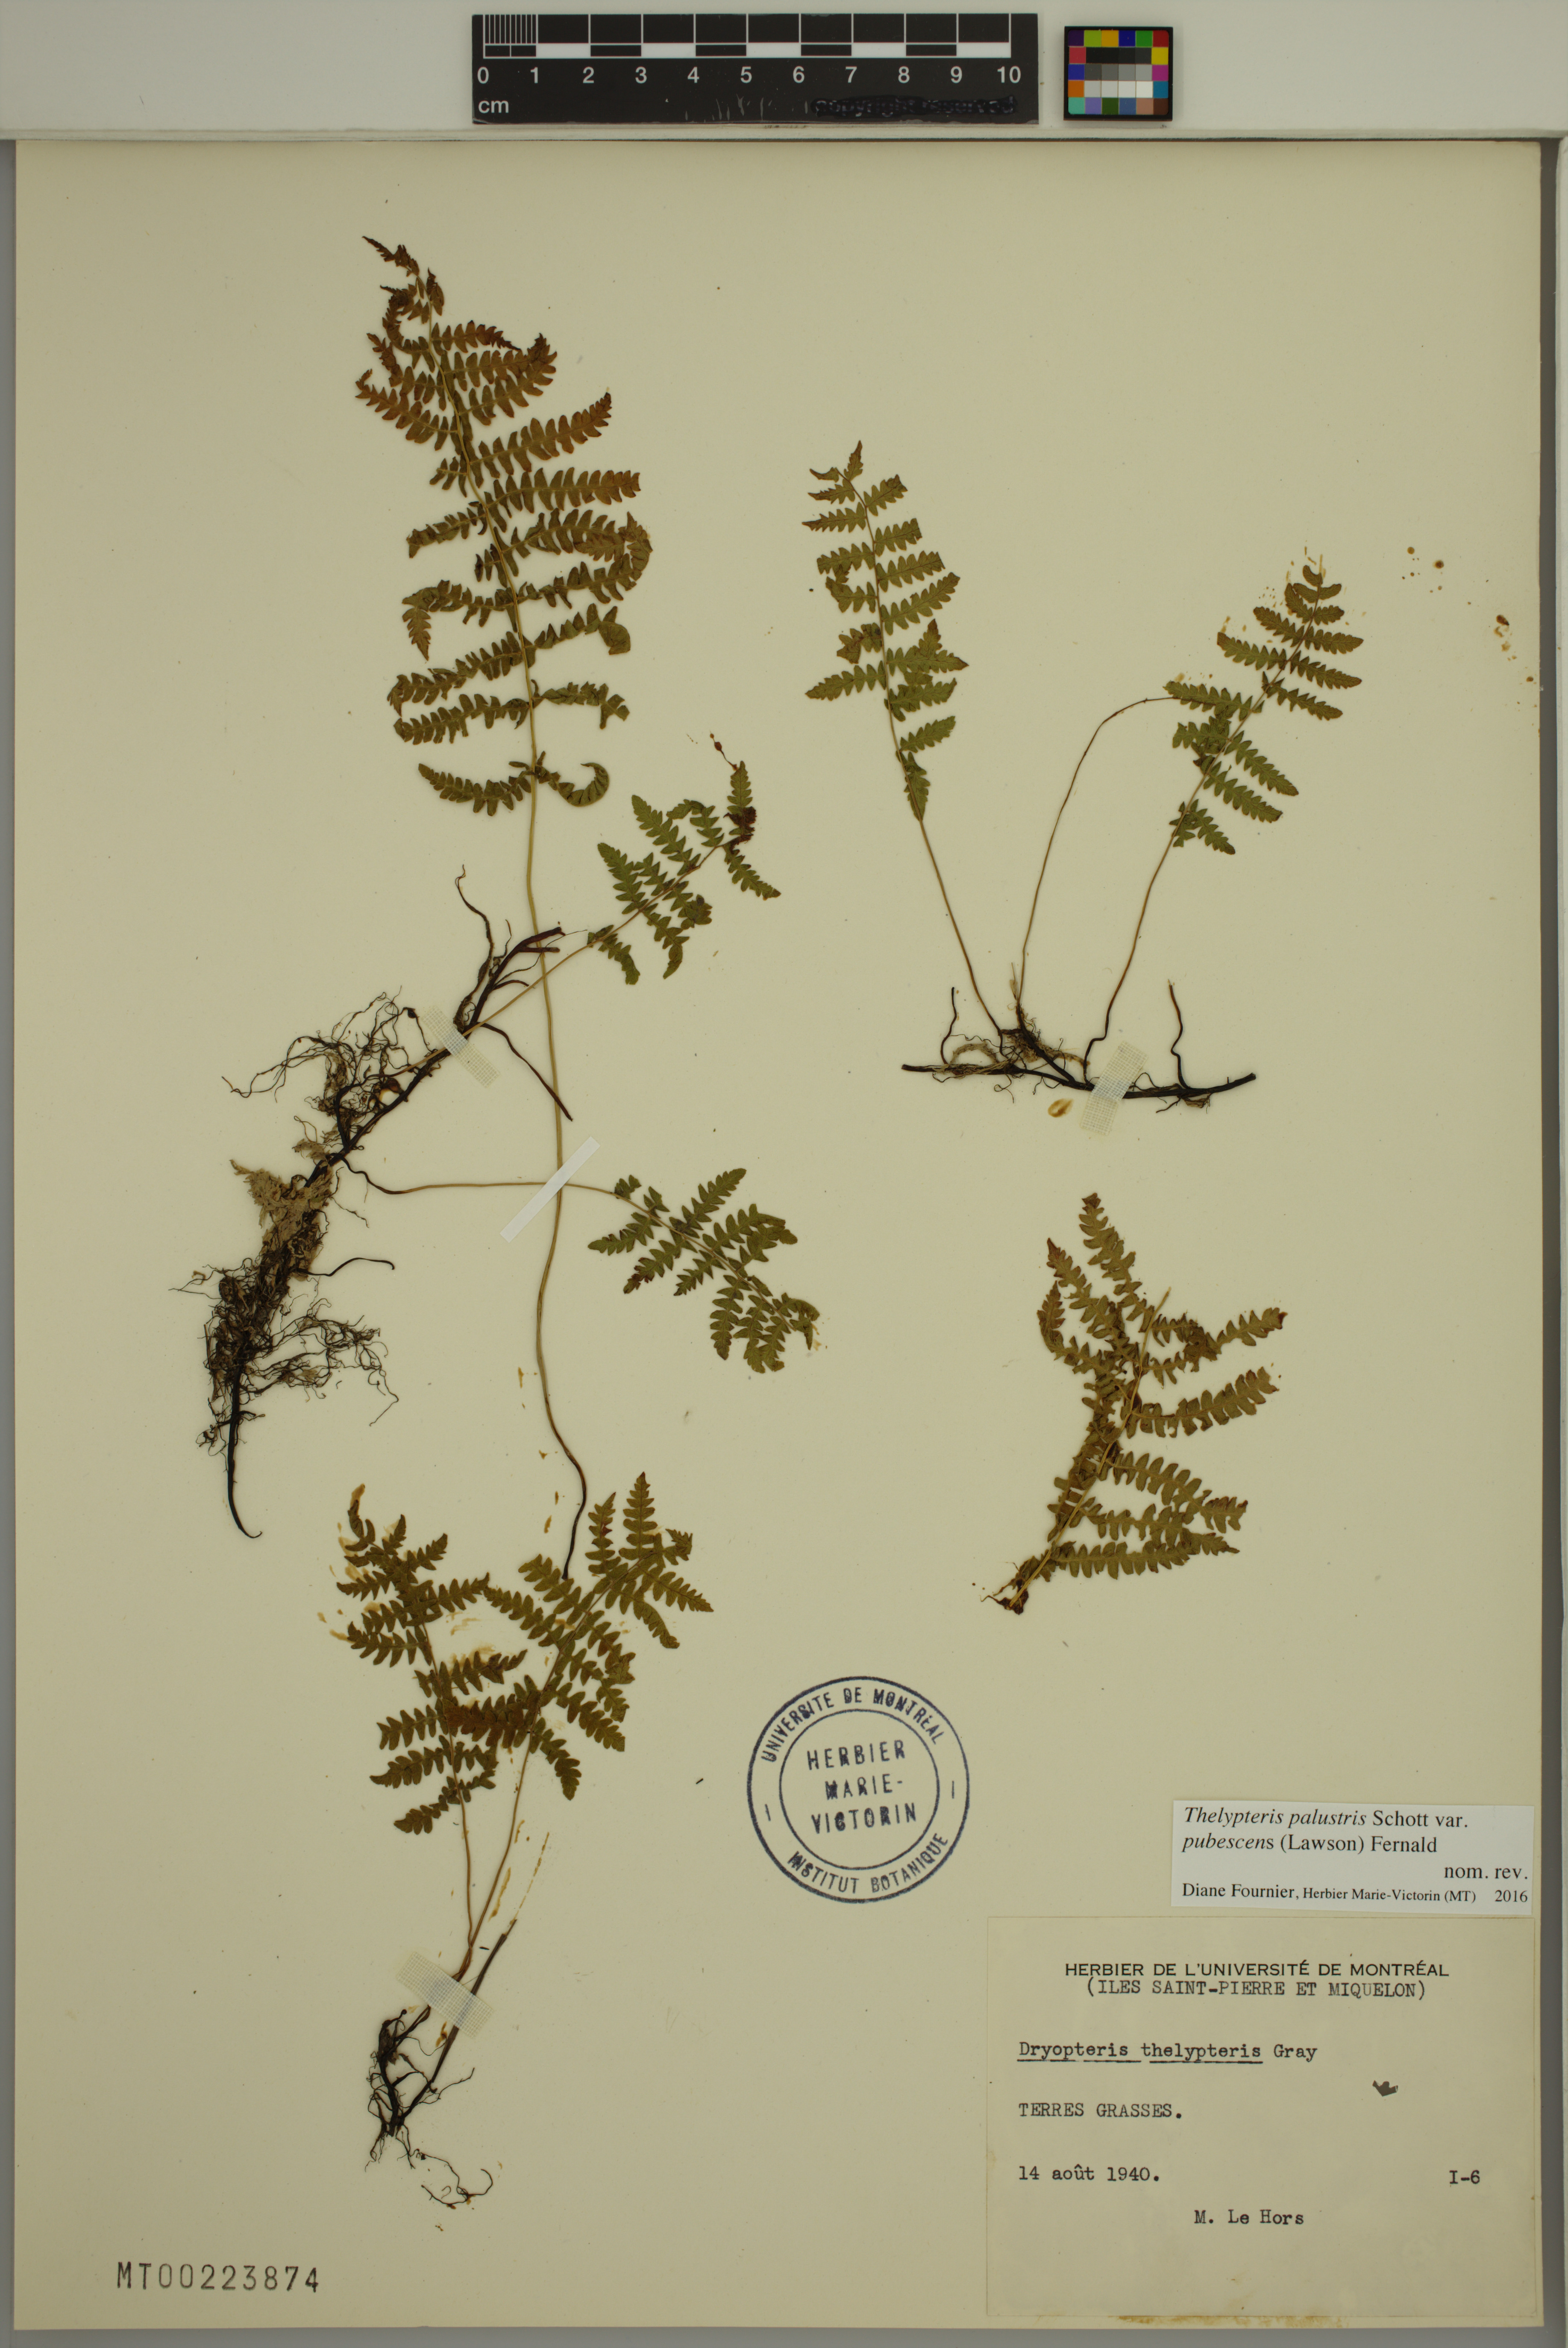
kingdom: Plantae
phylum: Tracheophyta
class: Polypodiopsida
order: Polypodiales
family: Thelypteridaceae
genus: Thelypteris
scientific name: Thelypteris palustris
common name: Marsh fern
